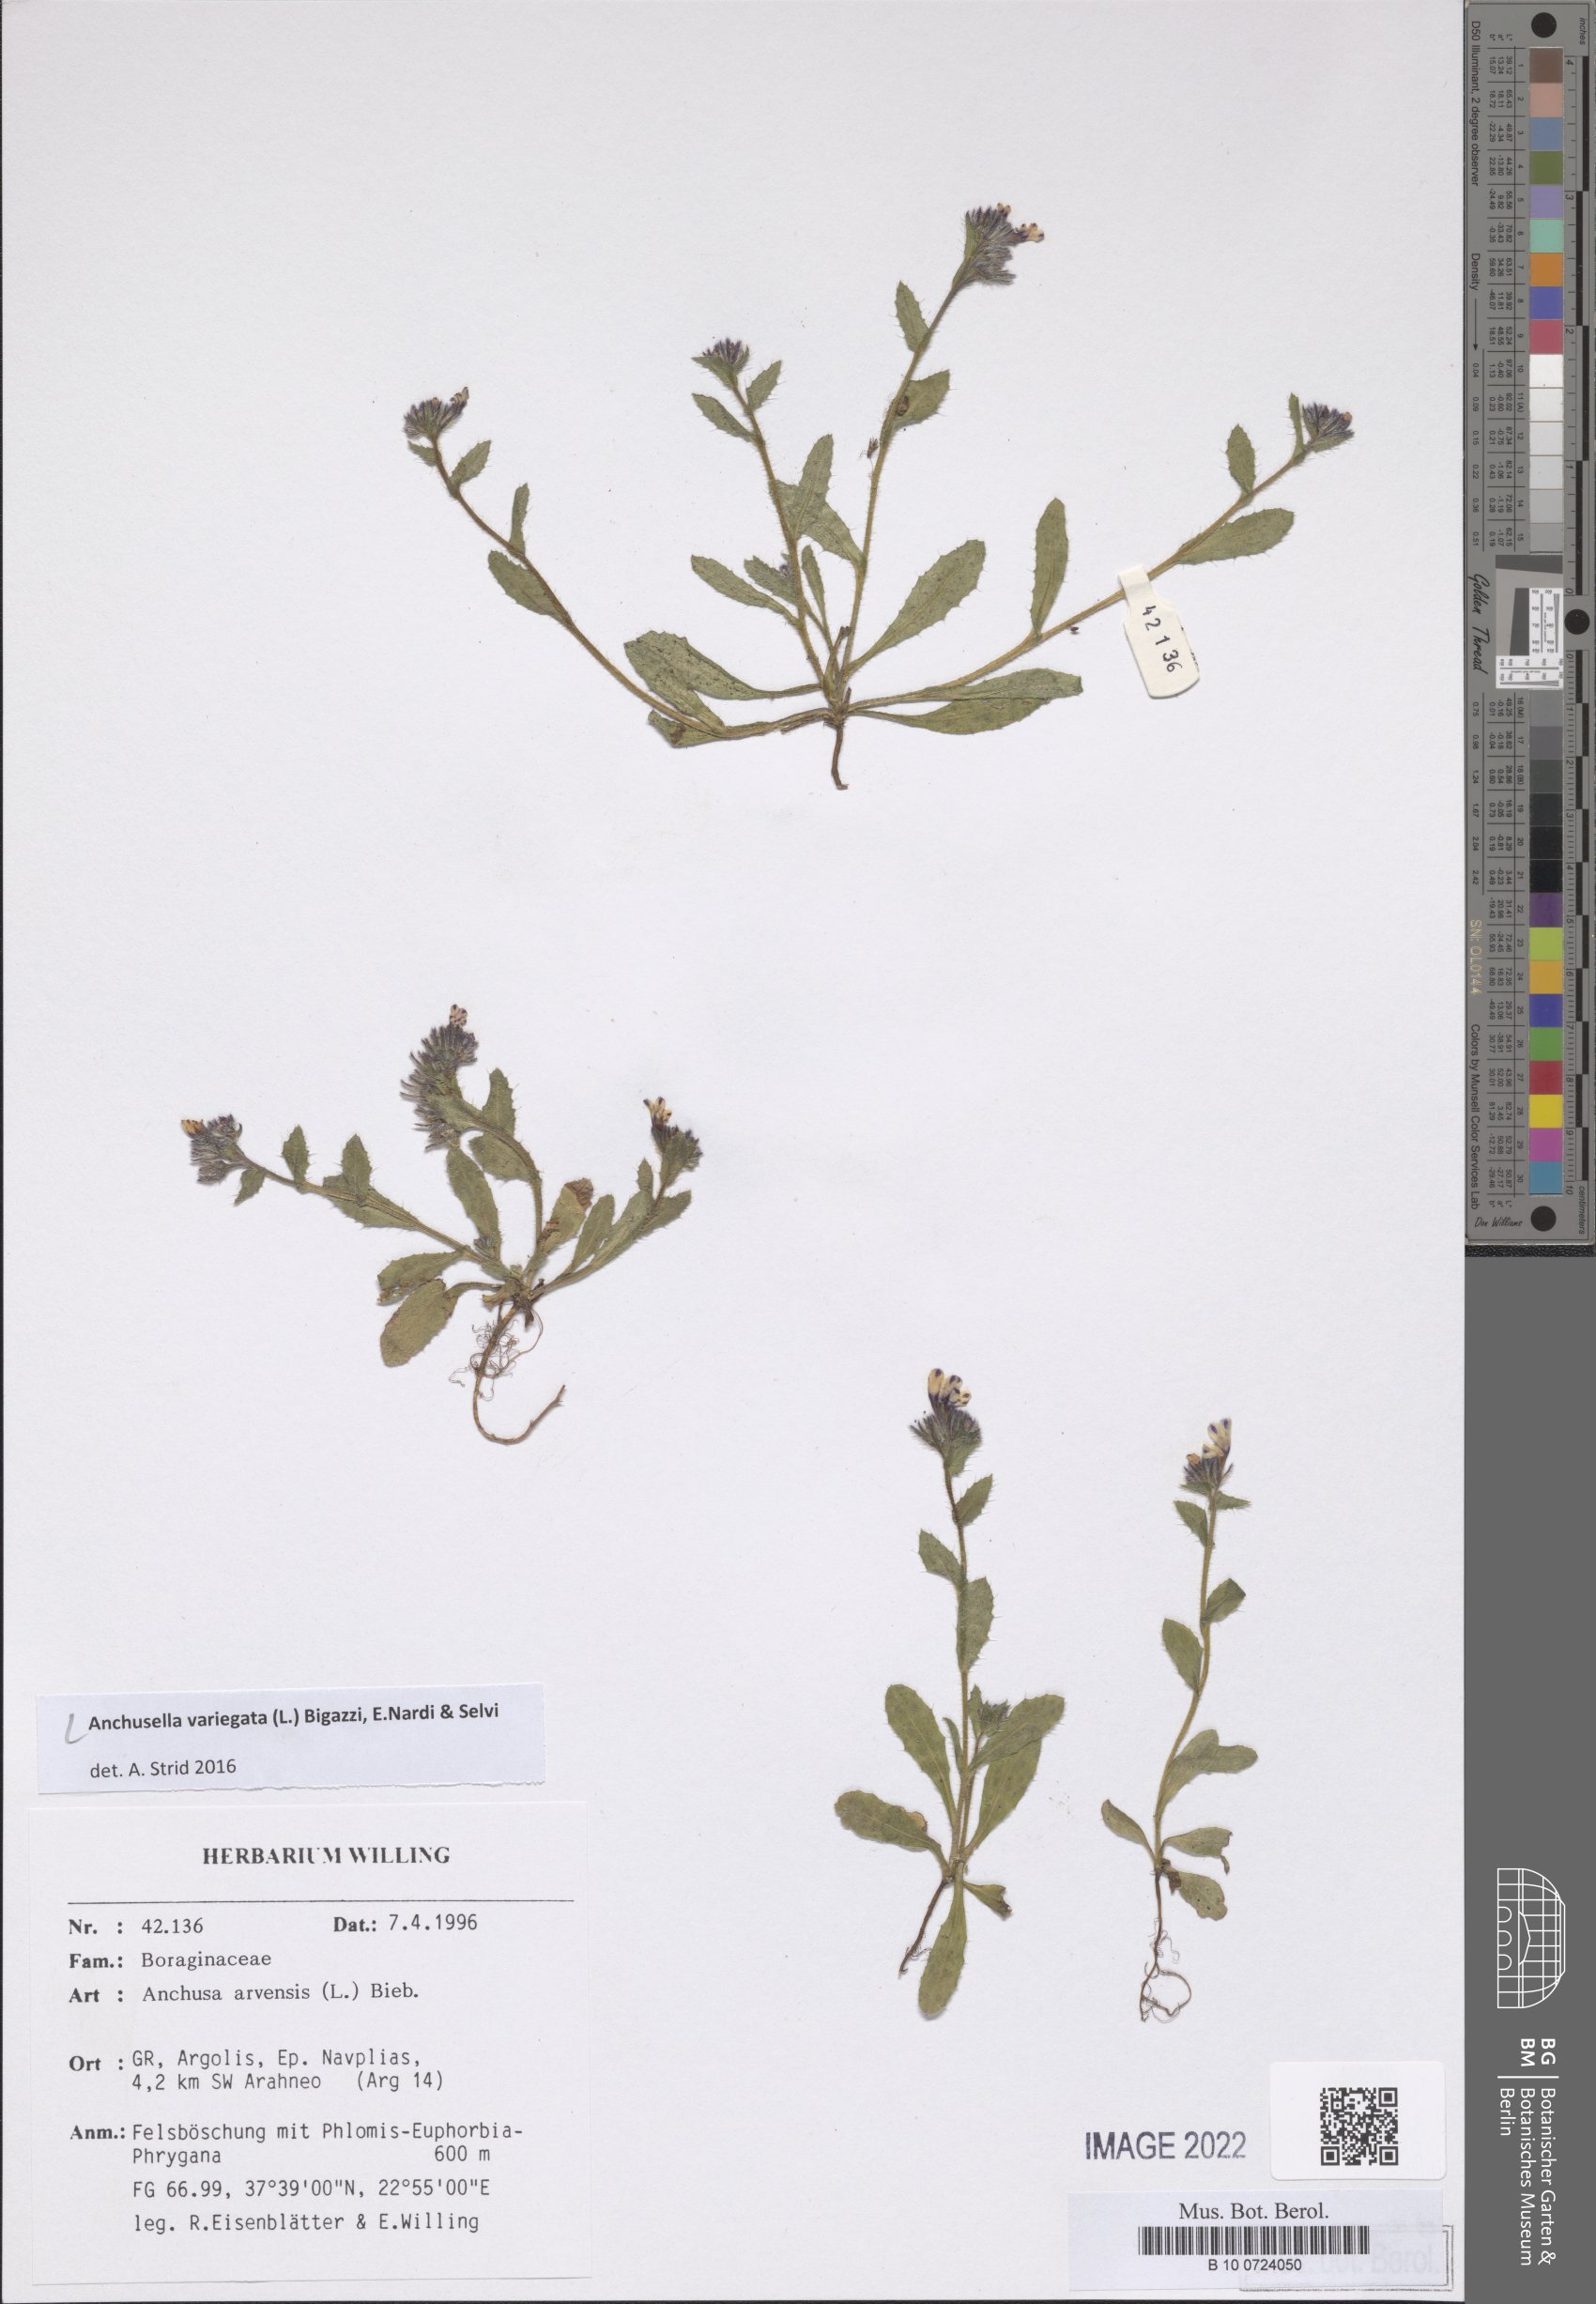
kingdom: Plantae
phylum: Tracheophyta
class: Magnoliopsida
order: Boraginales
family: Boraginaceae
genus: Anchusella
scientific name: Anchusella variegata
